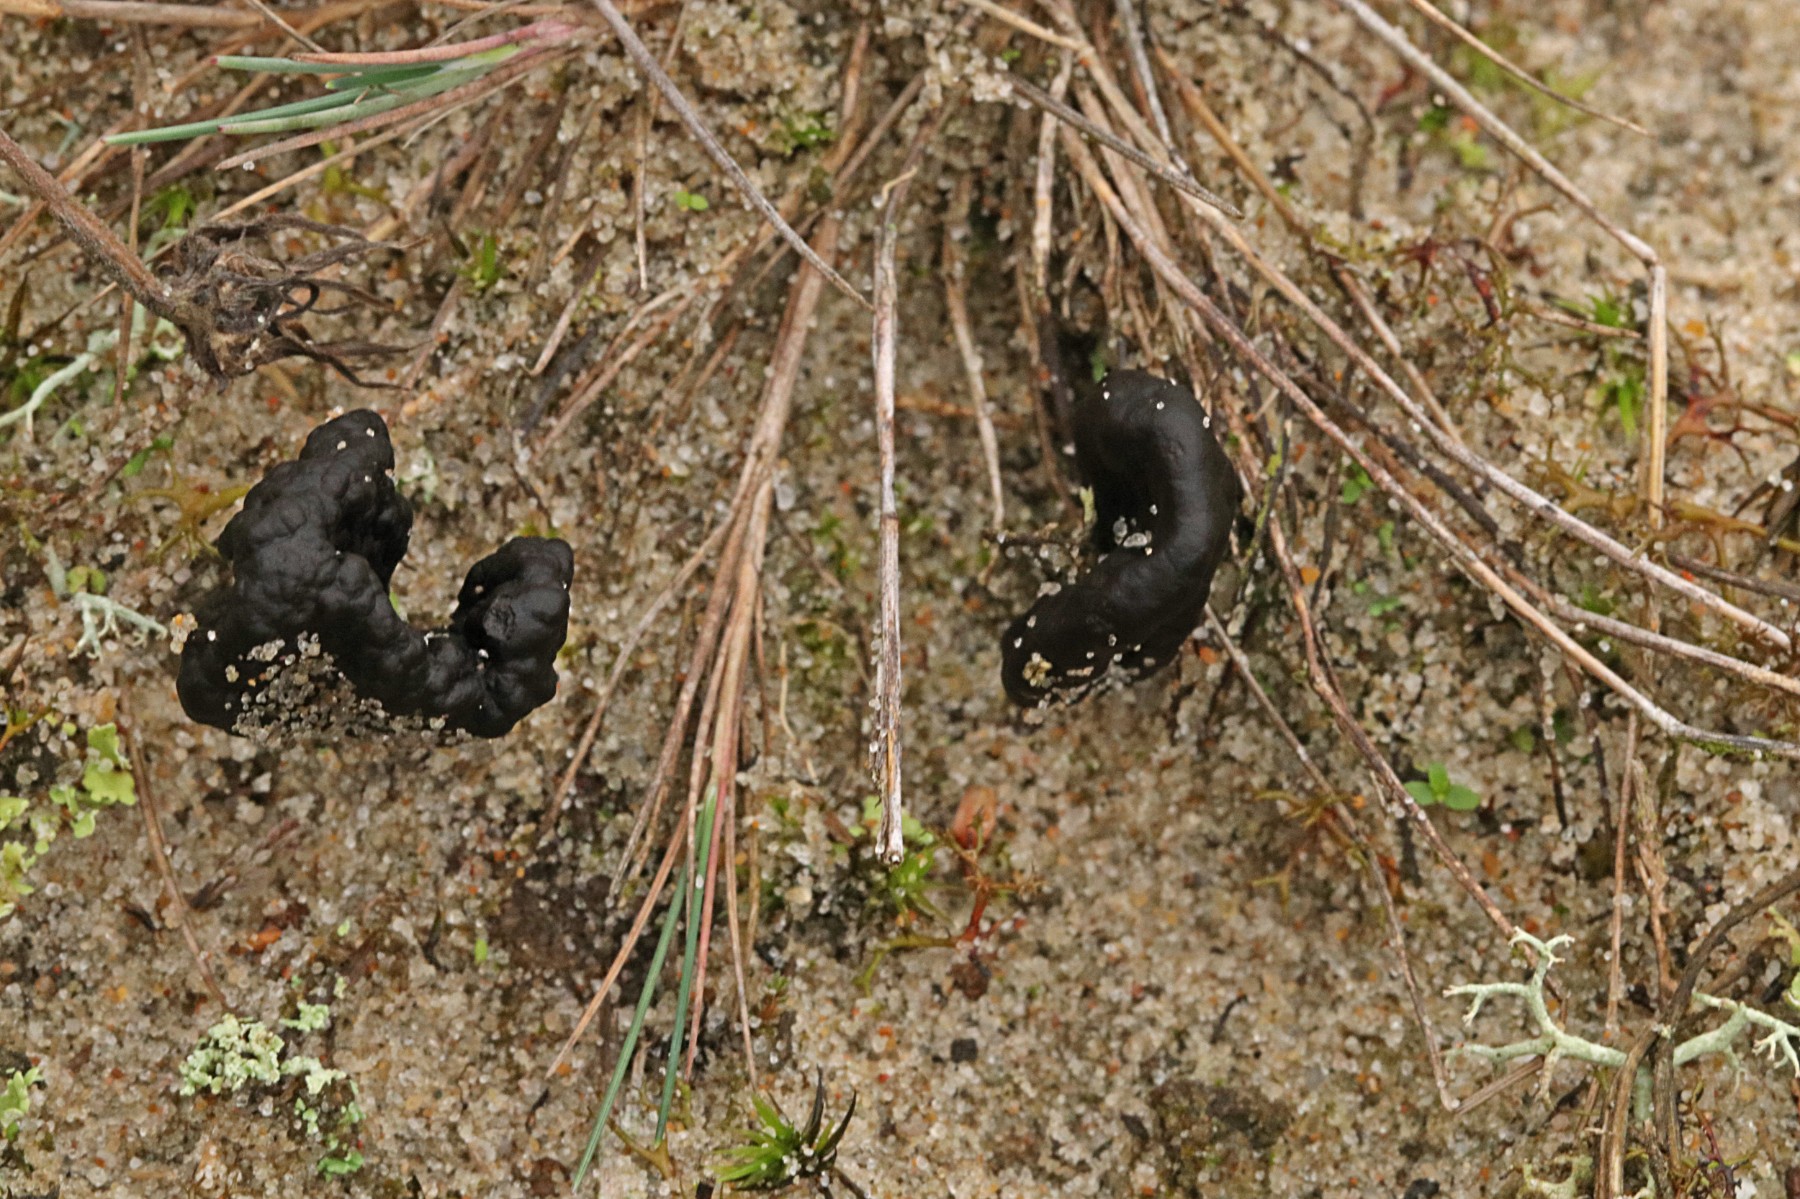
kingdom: Fungi
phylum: Ascomycota
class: Geoglossomycetes
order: Geoglossales
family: Geoglossaceae
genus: Sabuloglossum
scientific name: Sabuloglossum arenarium
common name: klit-jordtunge
